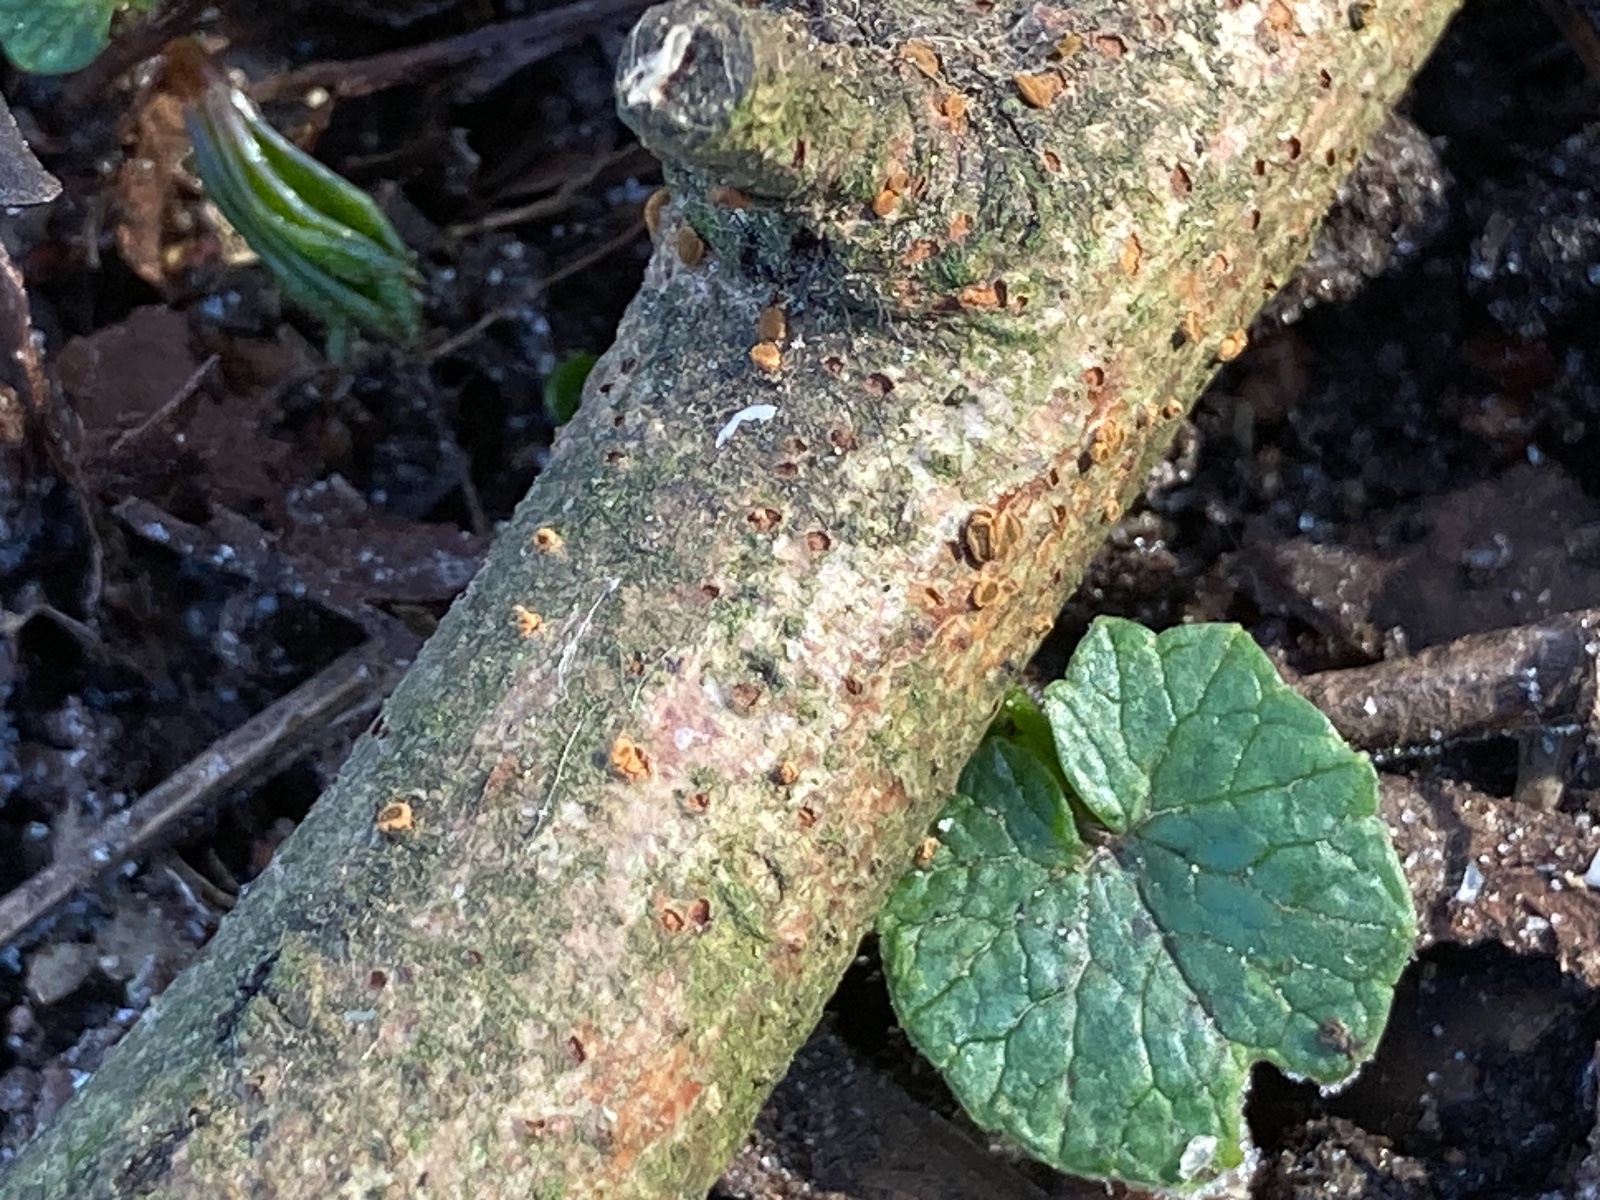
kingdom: Fungi
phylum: Ascomycota
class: Leotiomycetes
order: Helotiales
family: Dermateaceae
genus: Pezicula
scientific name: Pezicula sepium
